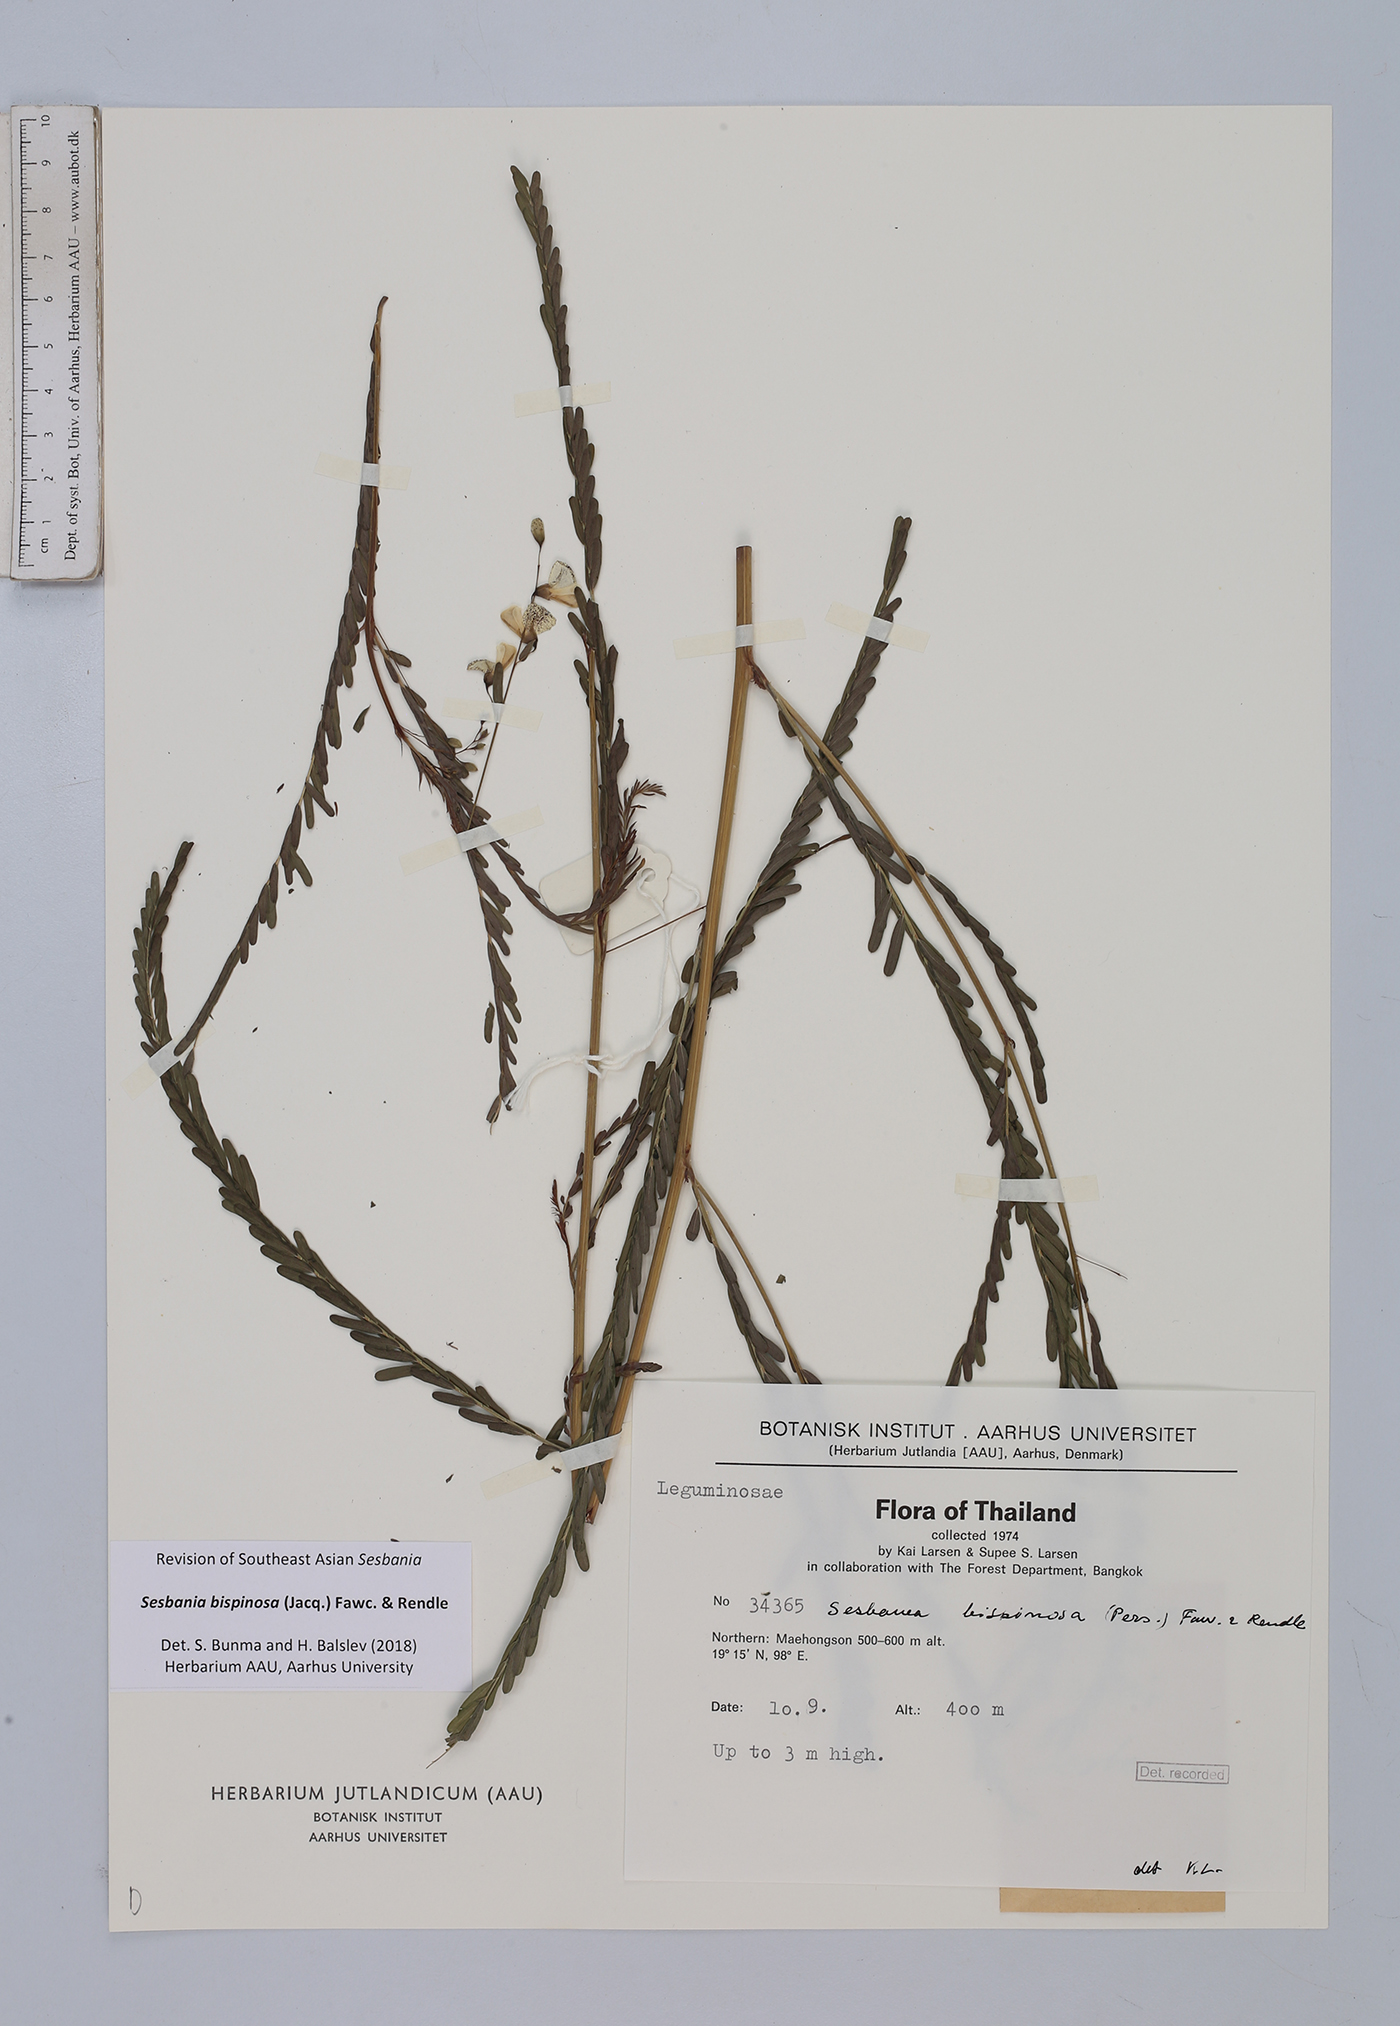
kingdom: Plantae
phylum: Tracheophyta
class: Magnoliopsida
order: Fabales
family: Fabaceae
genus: Sesbania
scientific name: Sesbania bispinosa
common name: Sesbania pea
